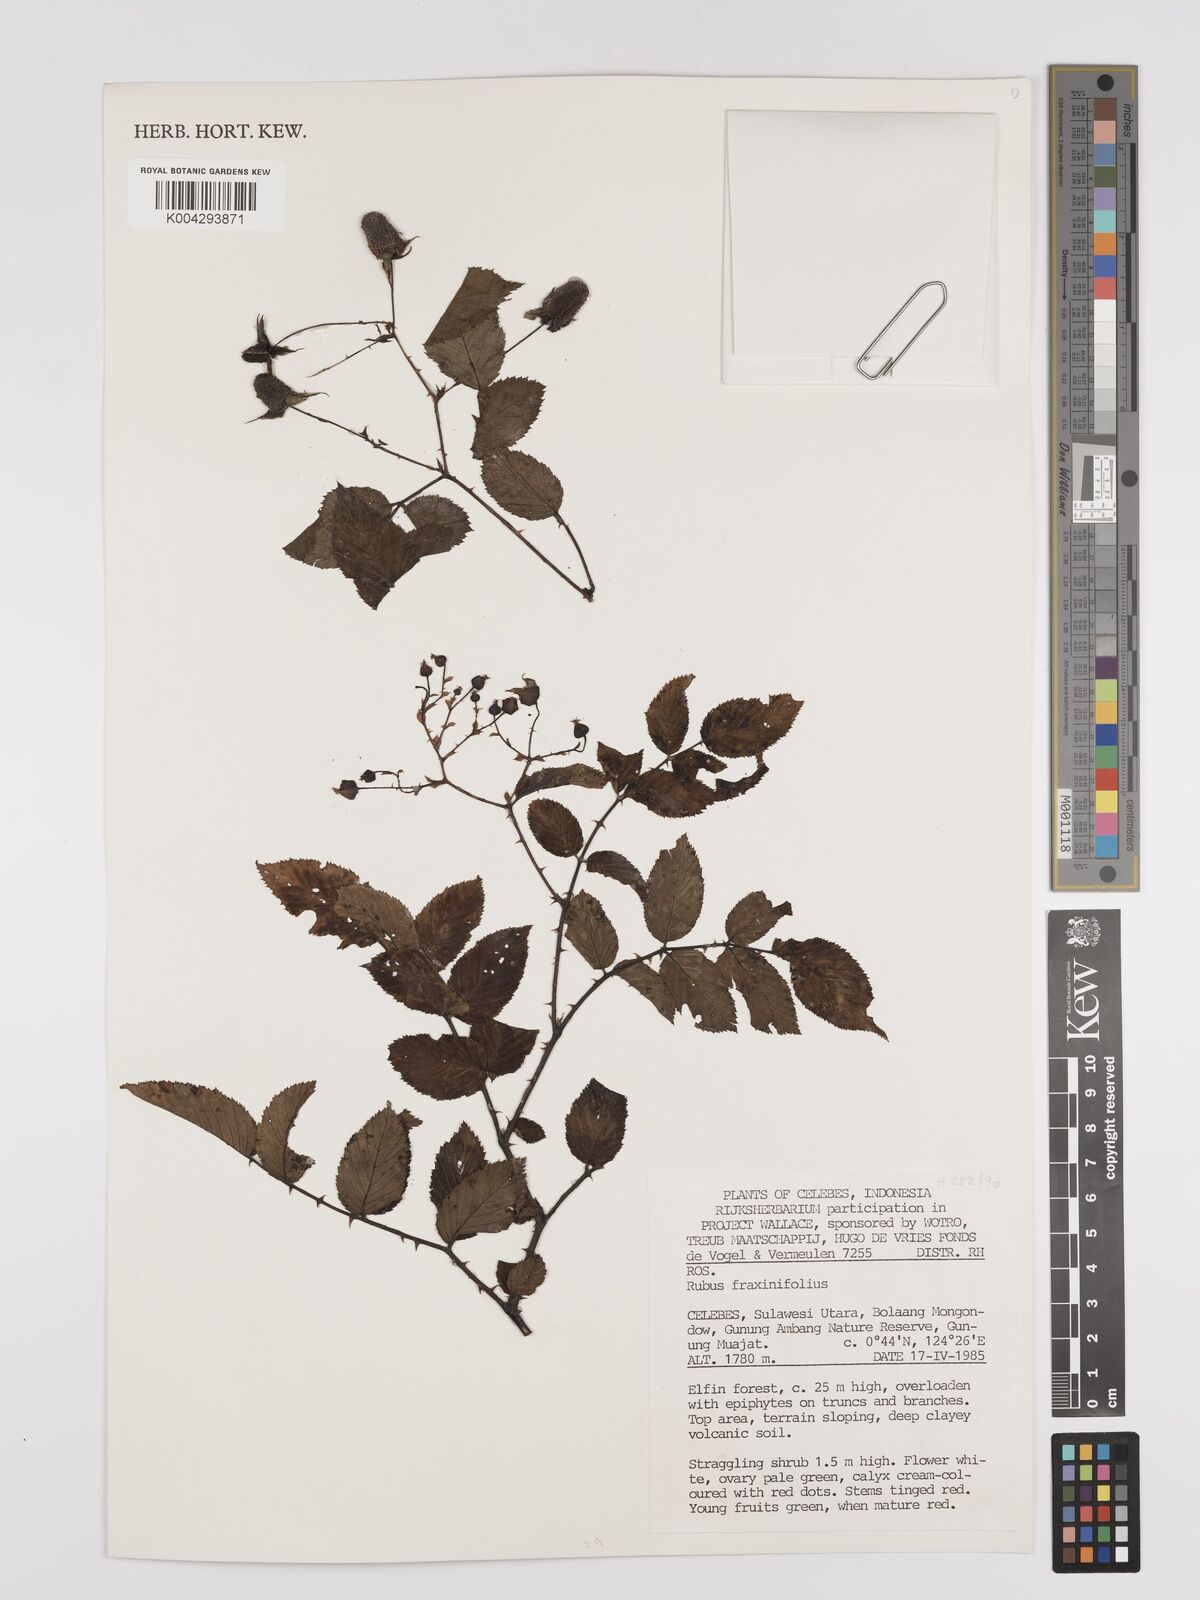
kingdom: Plantae
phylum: Tracheophyta
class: Magnoliopsida
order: Rosales
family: Rosaceae
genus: Rubus
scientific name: Rubus fraxinifolius
